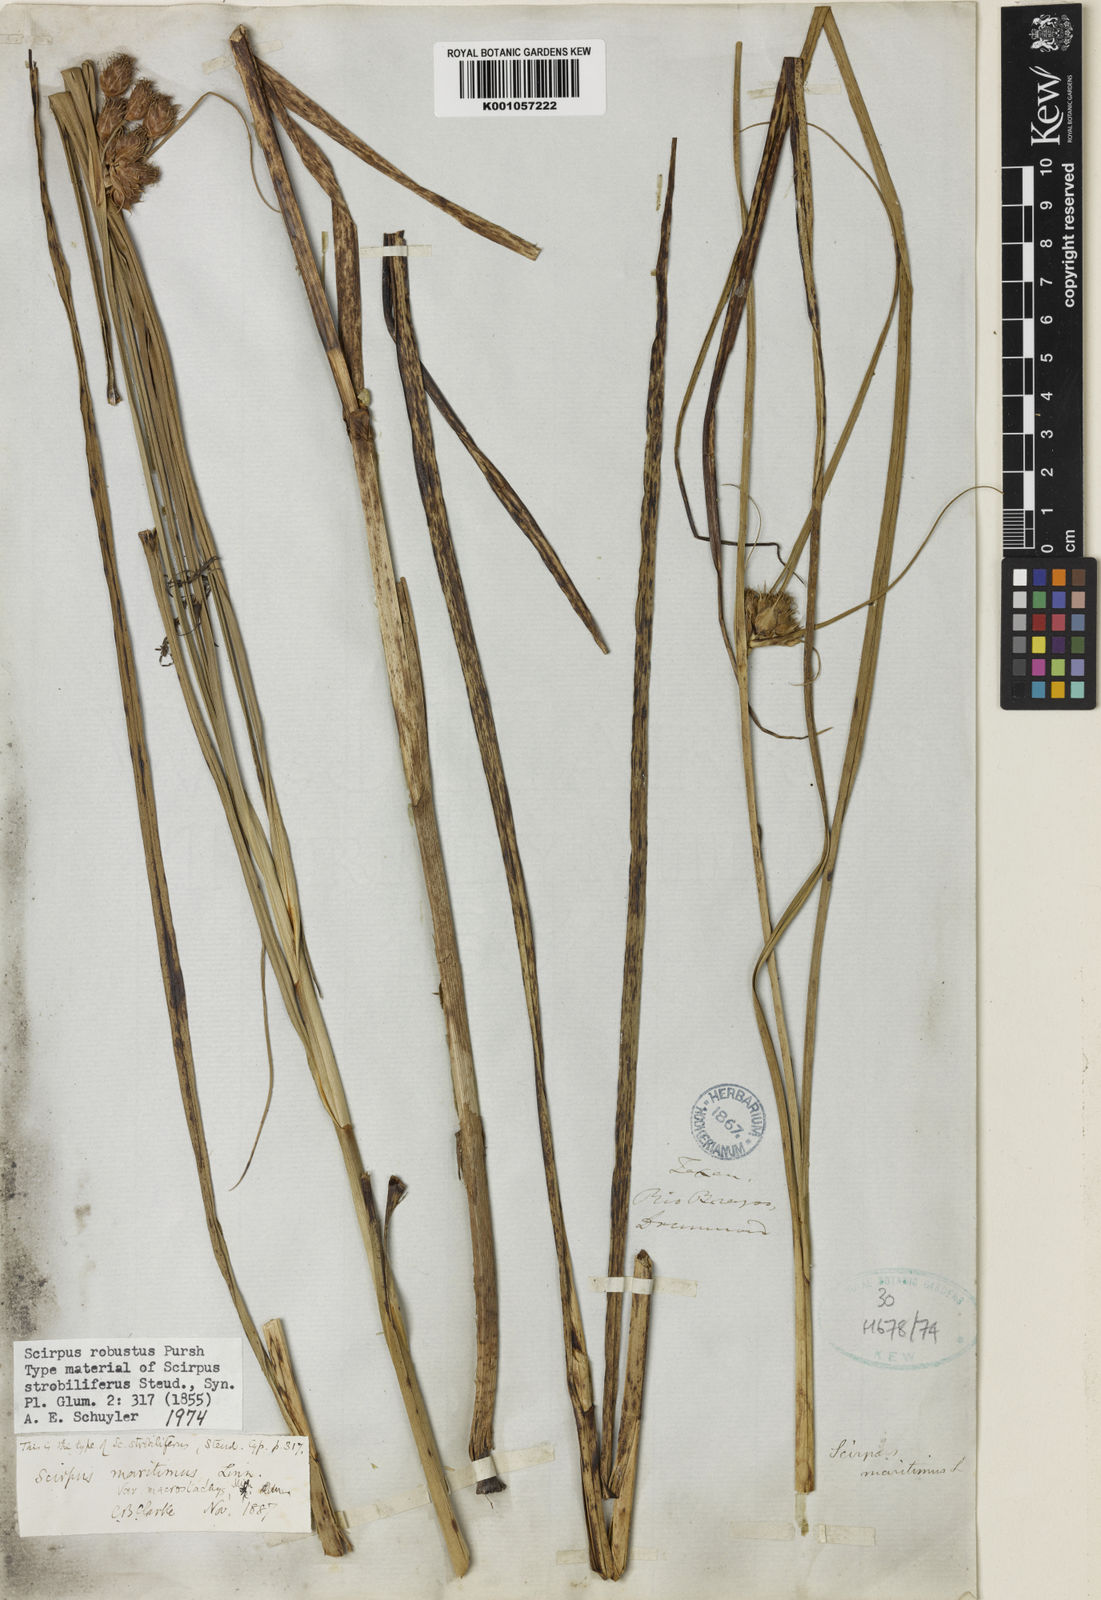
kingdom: Plantae
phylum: Tracheophyta
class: Liliopsida
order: Poales
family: Cyperaceae
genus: Bolboschoenus
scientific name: Bolboschoenus maritimus
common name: Sea club-rush
